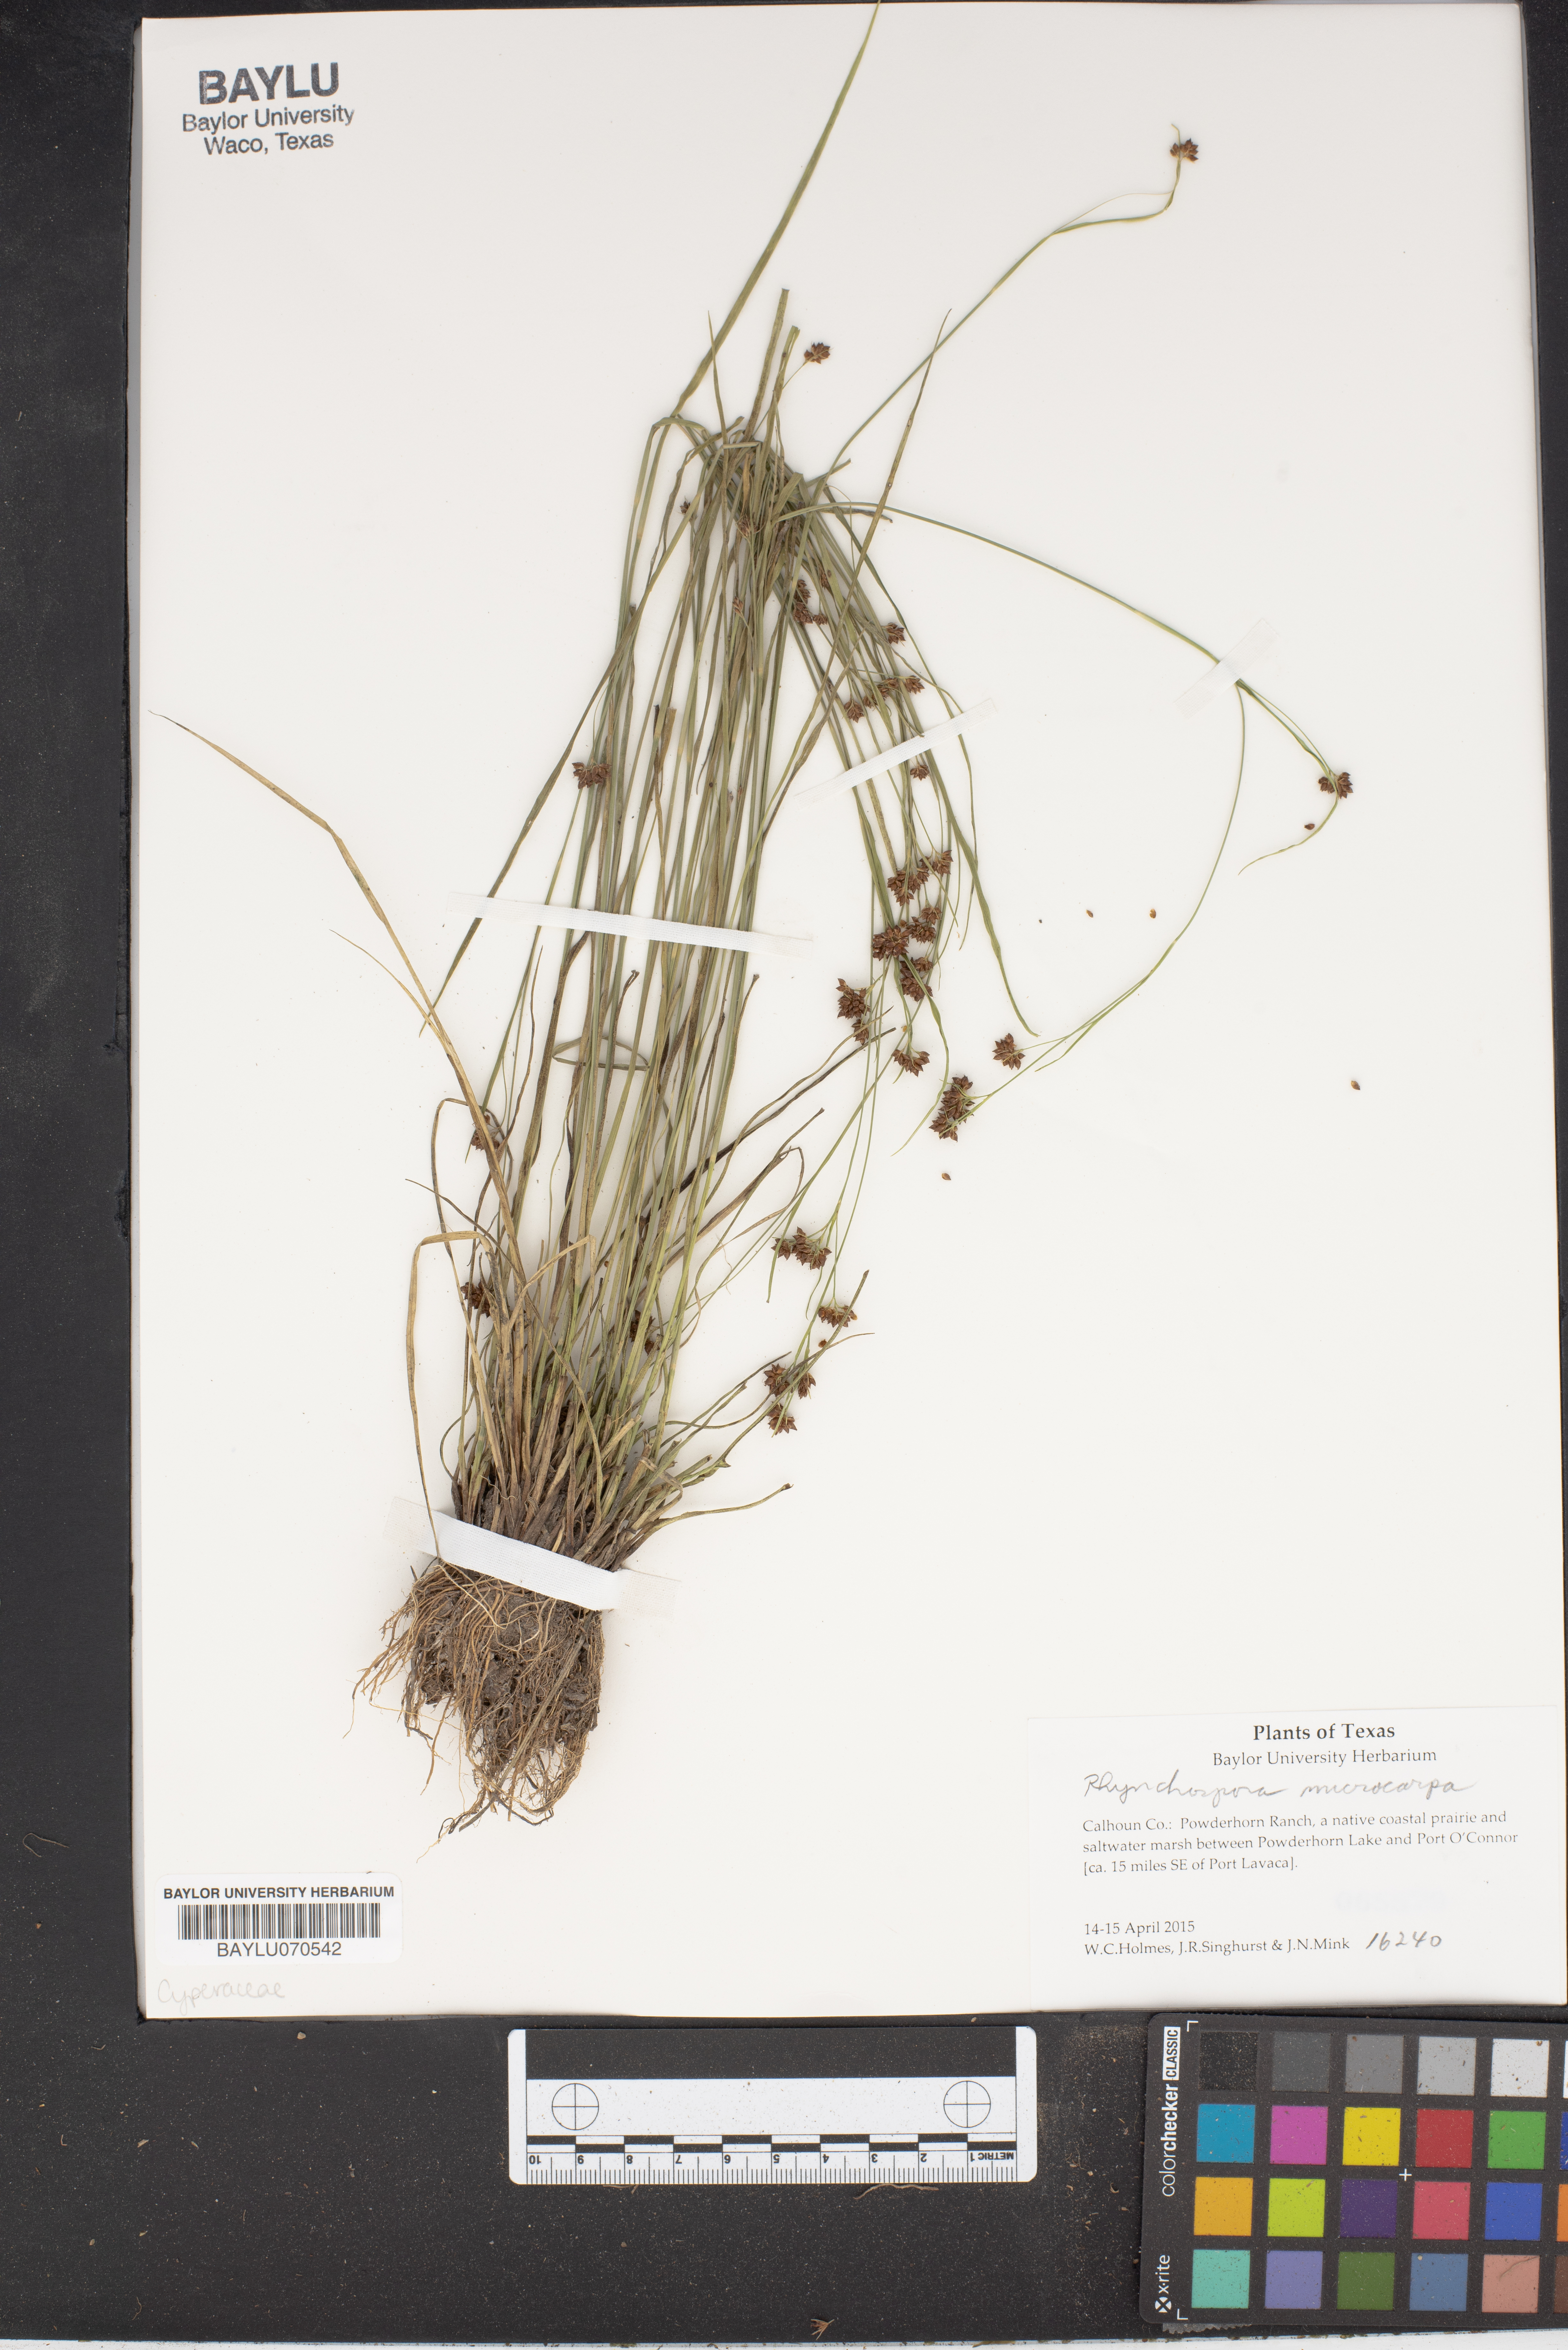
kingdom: Plantae
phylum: Tracheophyta
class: Liliopsida
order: Asparagales
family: Orchidaceae
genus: Pleurothallis
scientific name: Pleurothallis
